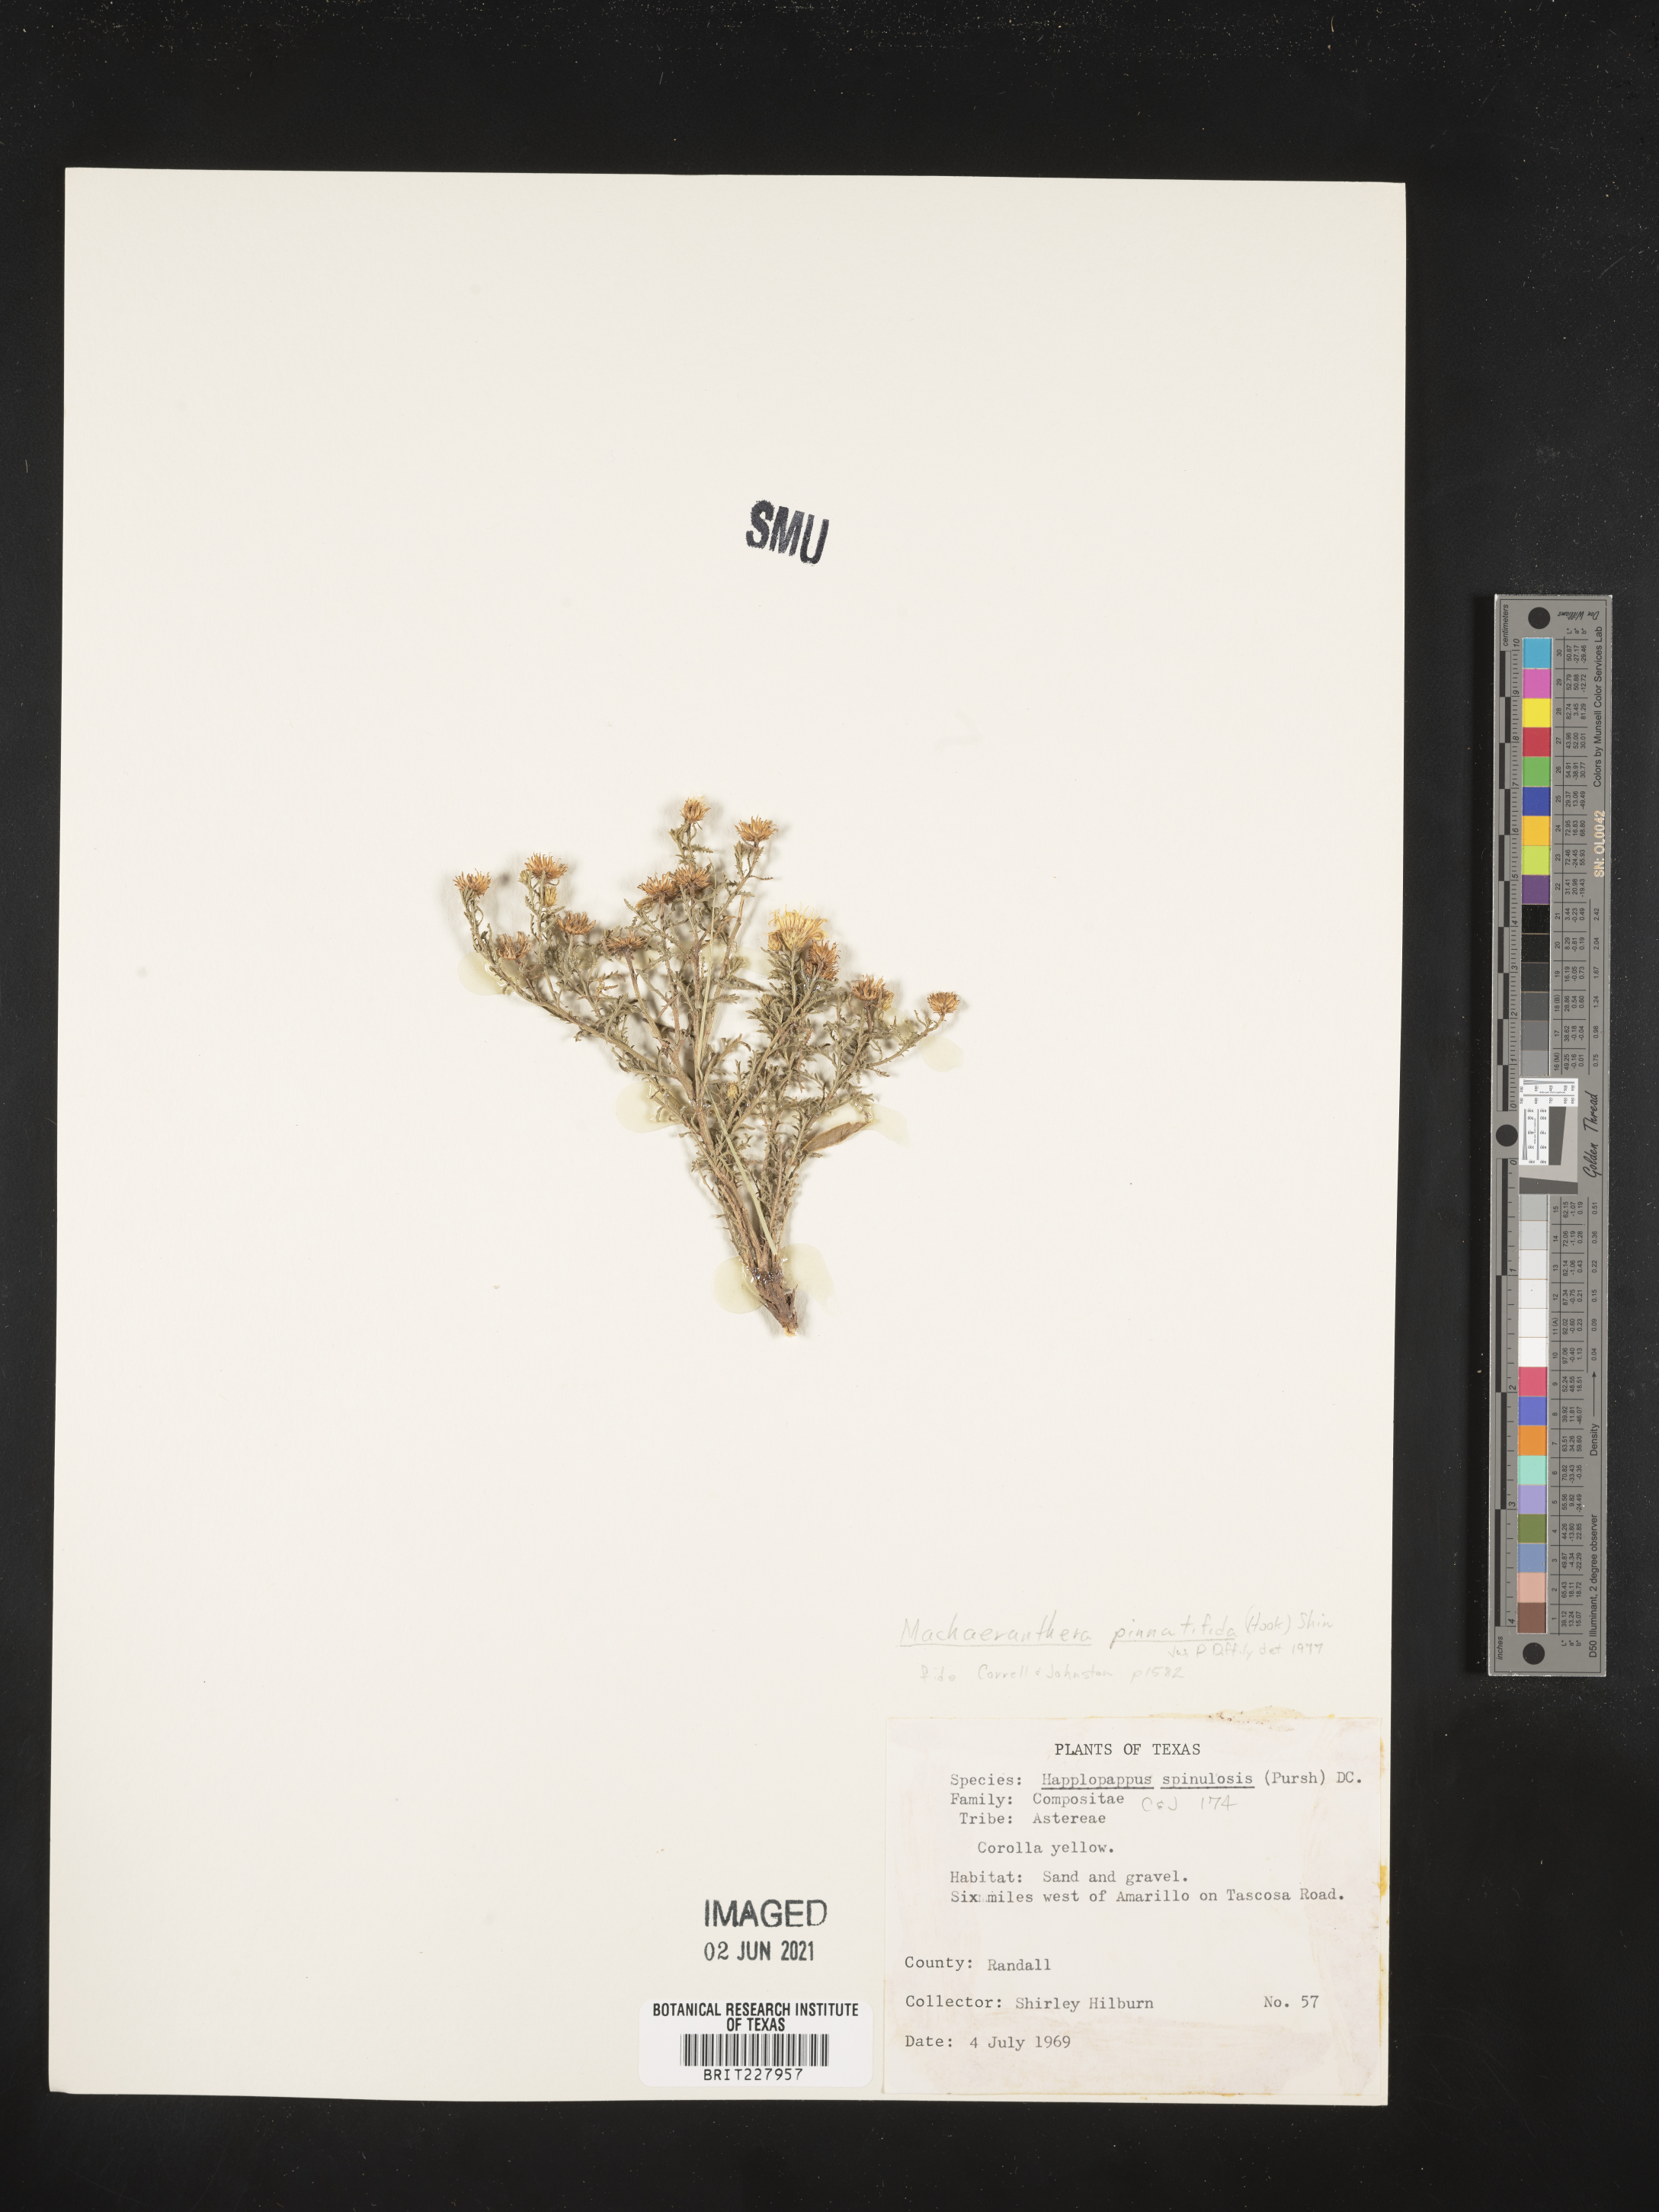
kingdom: Plantae
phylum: Tracheophyta
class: Magnoliopsida
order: Asterales
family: Asteraceae
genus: Xanthisma
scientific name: Xanthisma spinulosum
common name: Spiny goldenweed
